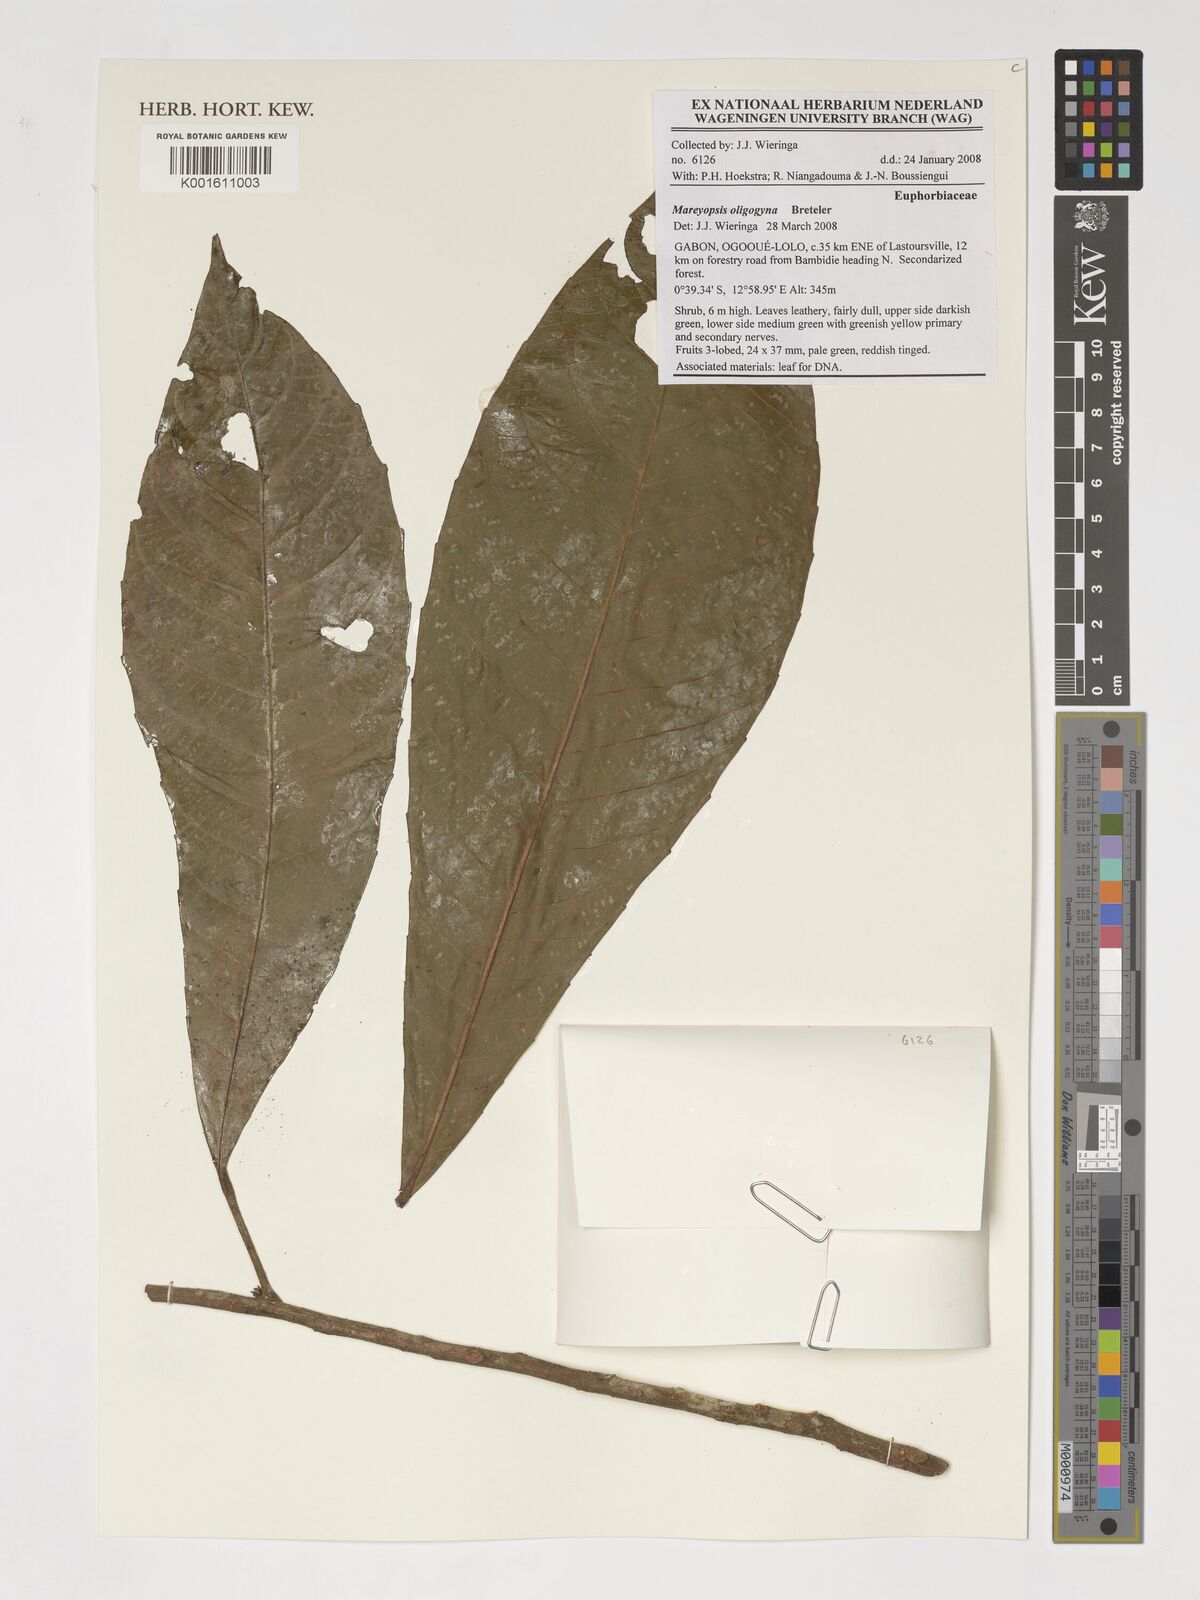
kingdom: Plantae
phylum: Tracheophyta
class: Magnoliopsida
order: Malpighiales
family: Euphorbiaceae
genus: Mareyopsis
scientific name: Mareyopsis oligogyna
